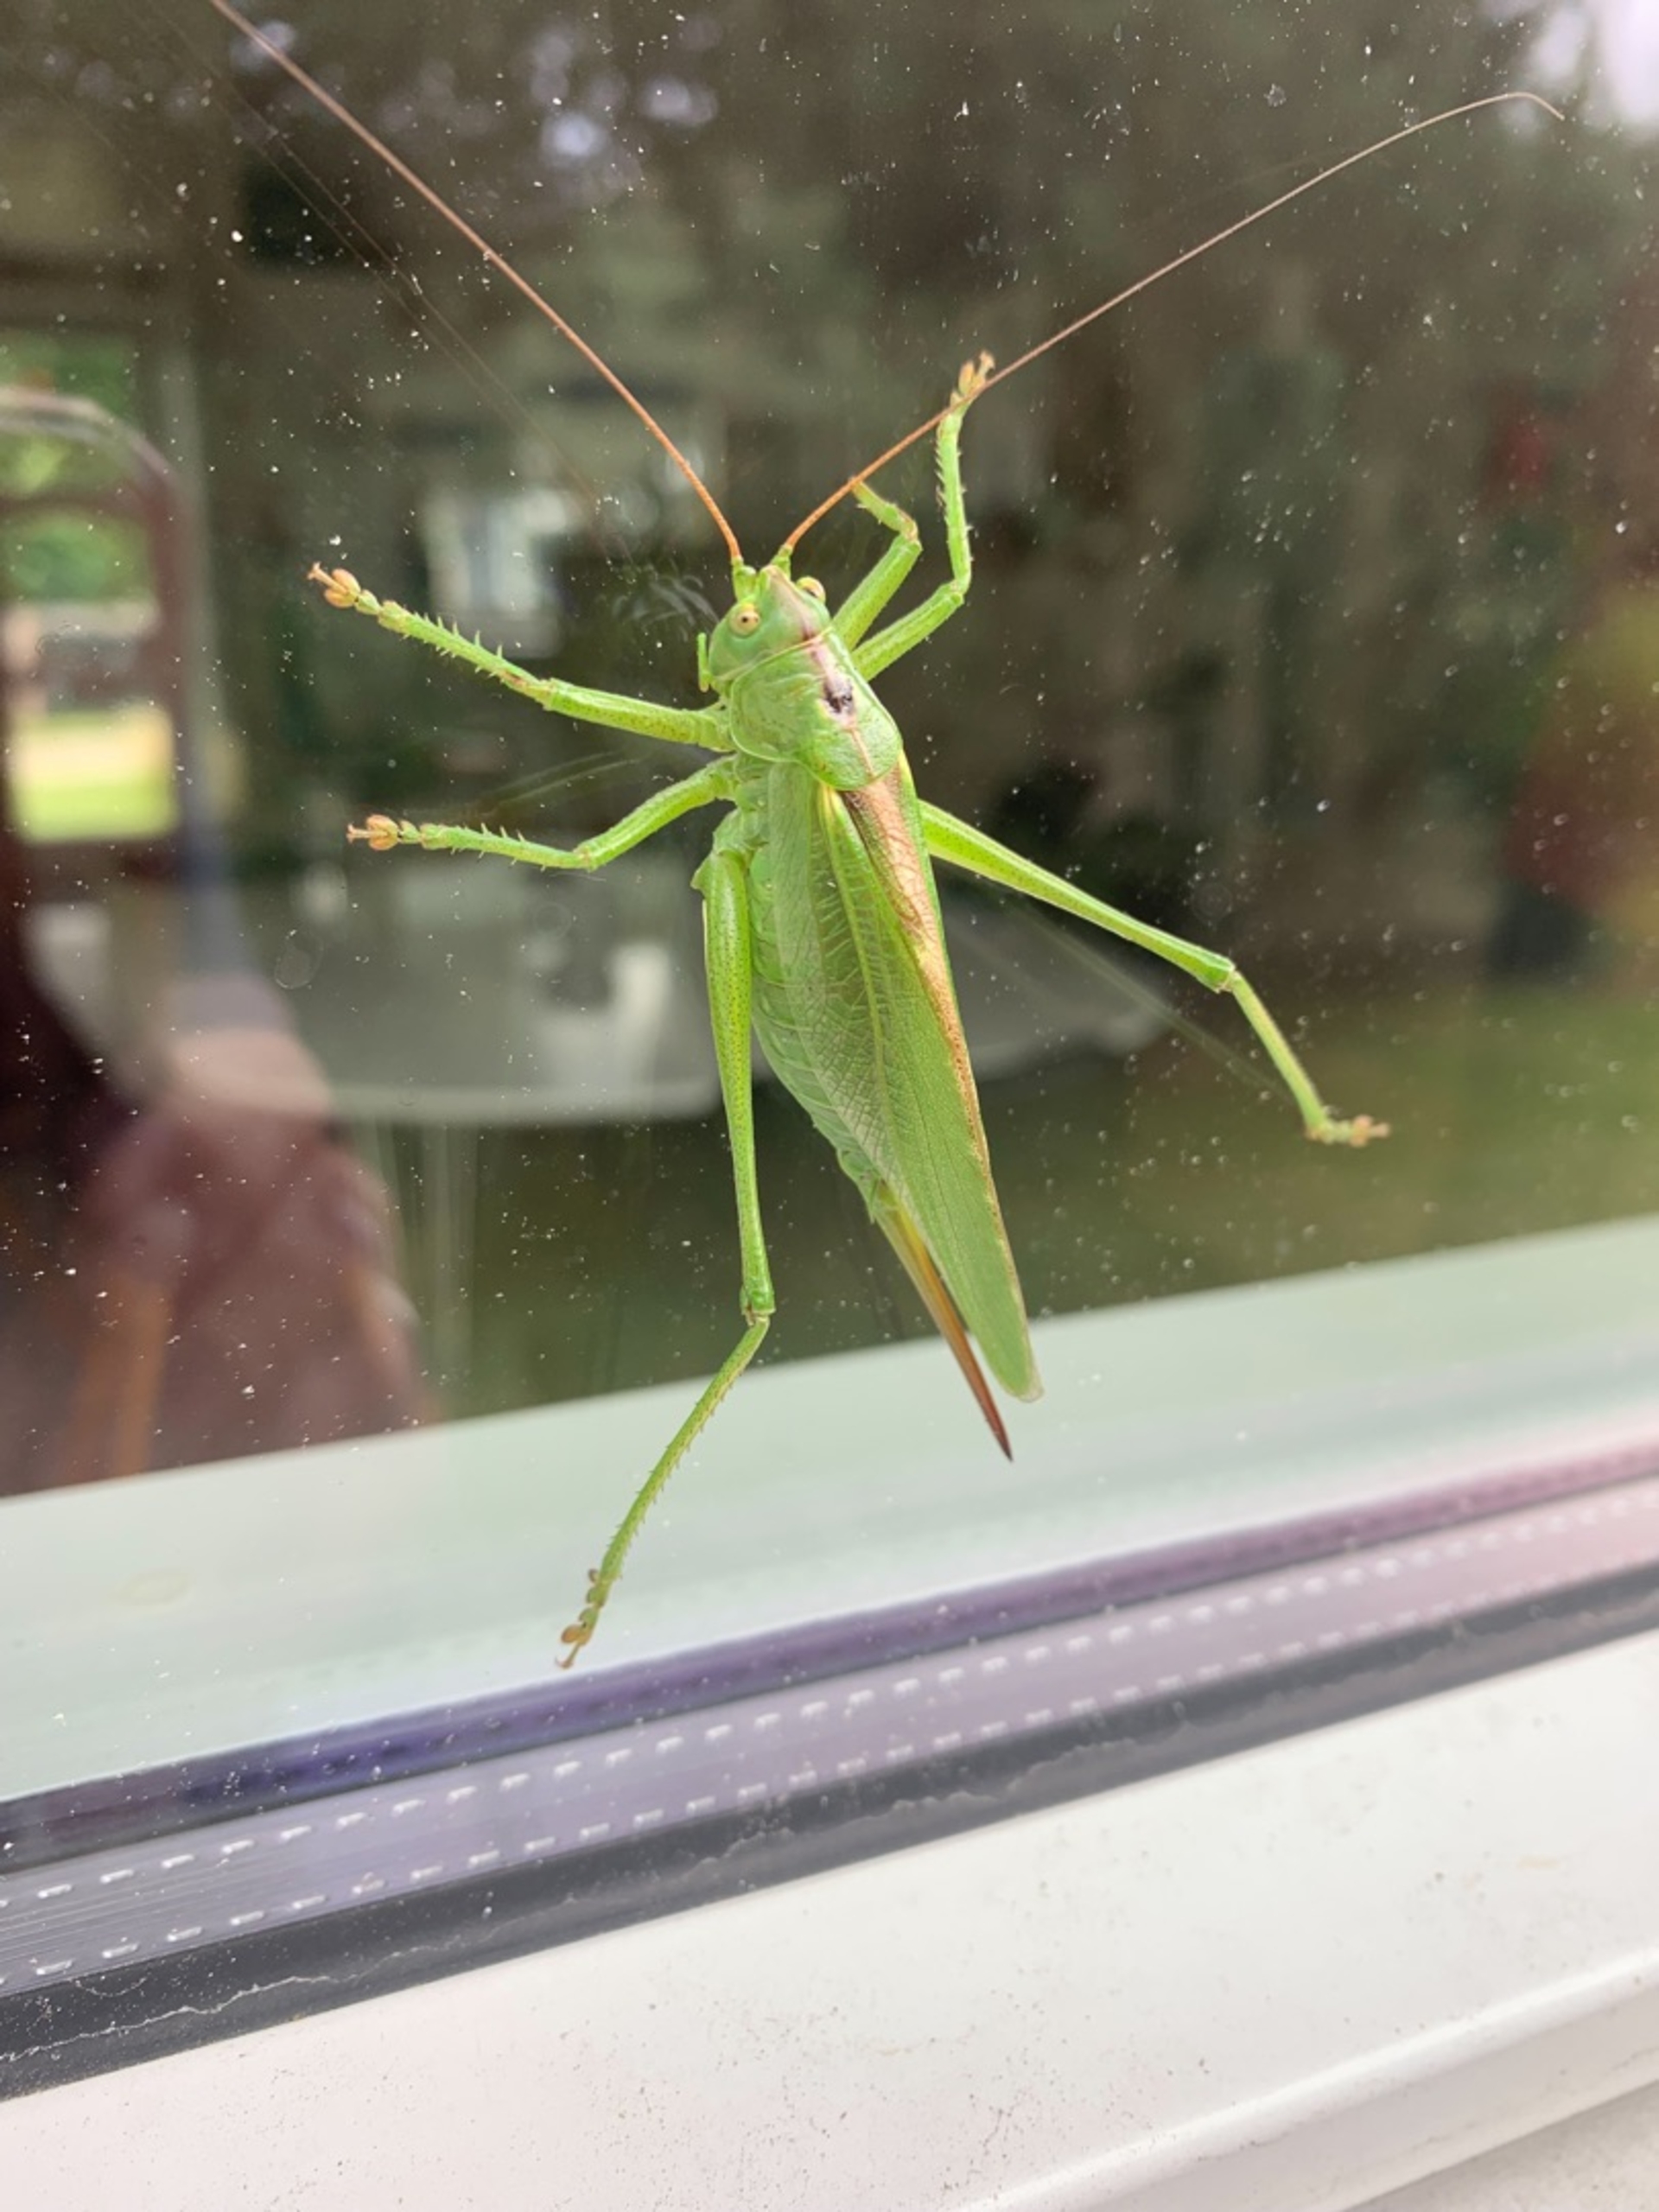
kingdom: Animalia
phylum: Arthropoda
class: Insecta
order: Orthoptera
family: Tettigoniidae
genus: Tettigonia
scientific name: Tettigonia viridissima
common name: Stor grøn løvgræshoppe
